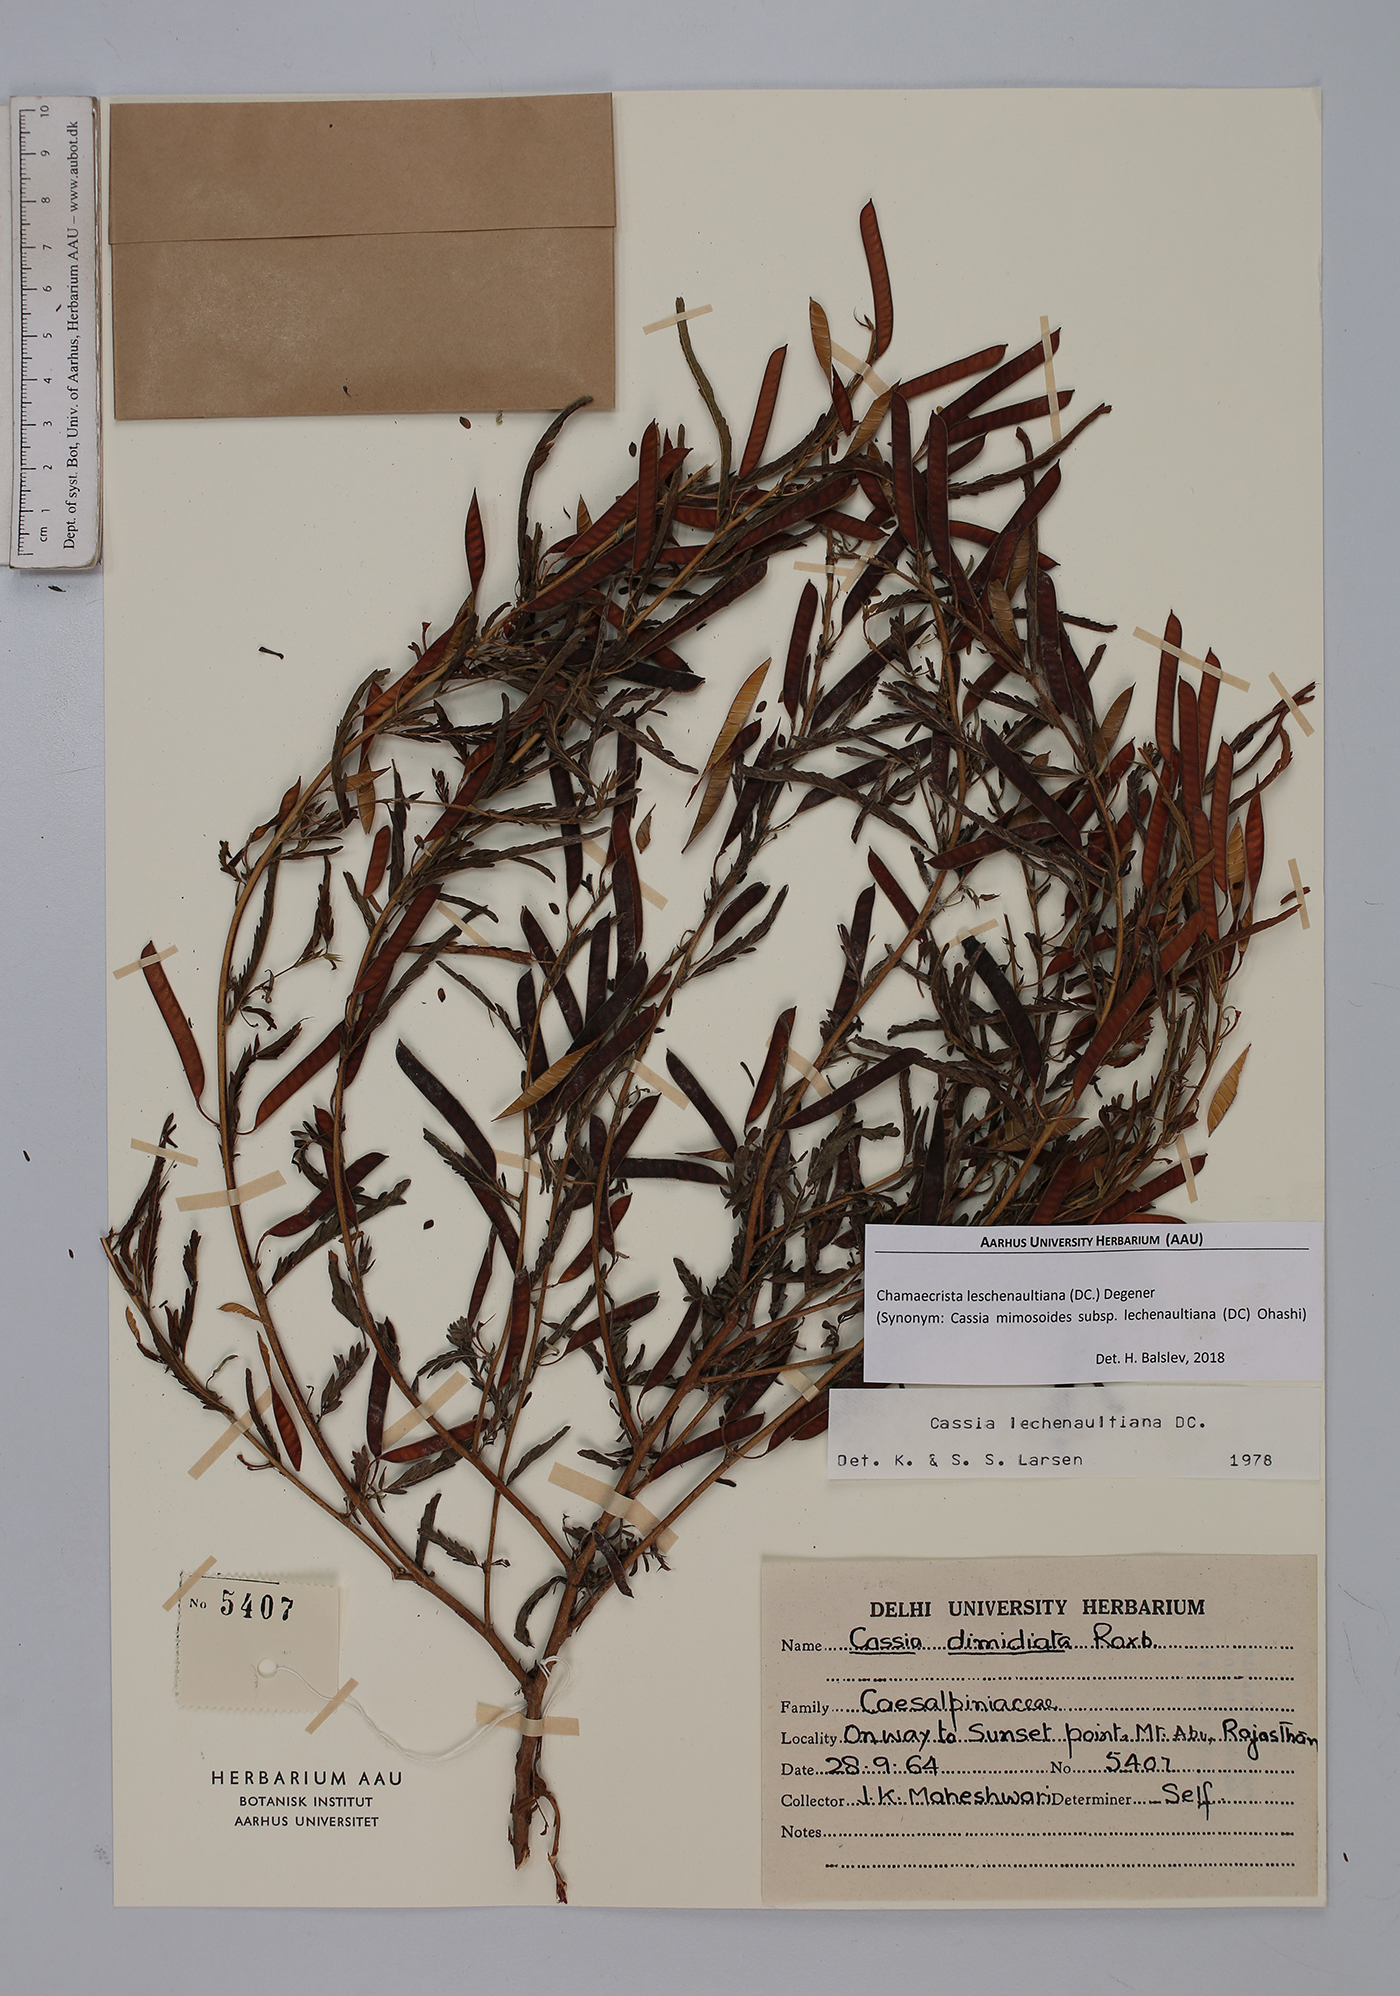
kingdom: Plantae
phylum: Tracheophyta
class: Magnoliopsida
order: Fabales
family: Fabaceae
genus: Chamaecrista
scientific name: Chamaecrista nictitans
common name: Sensitive cassia
